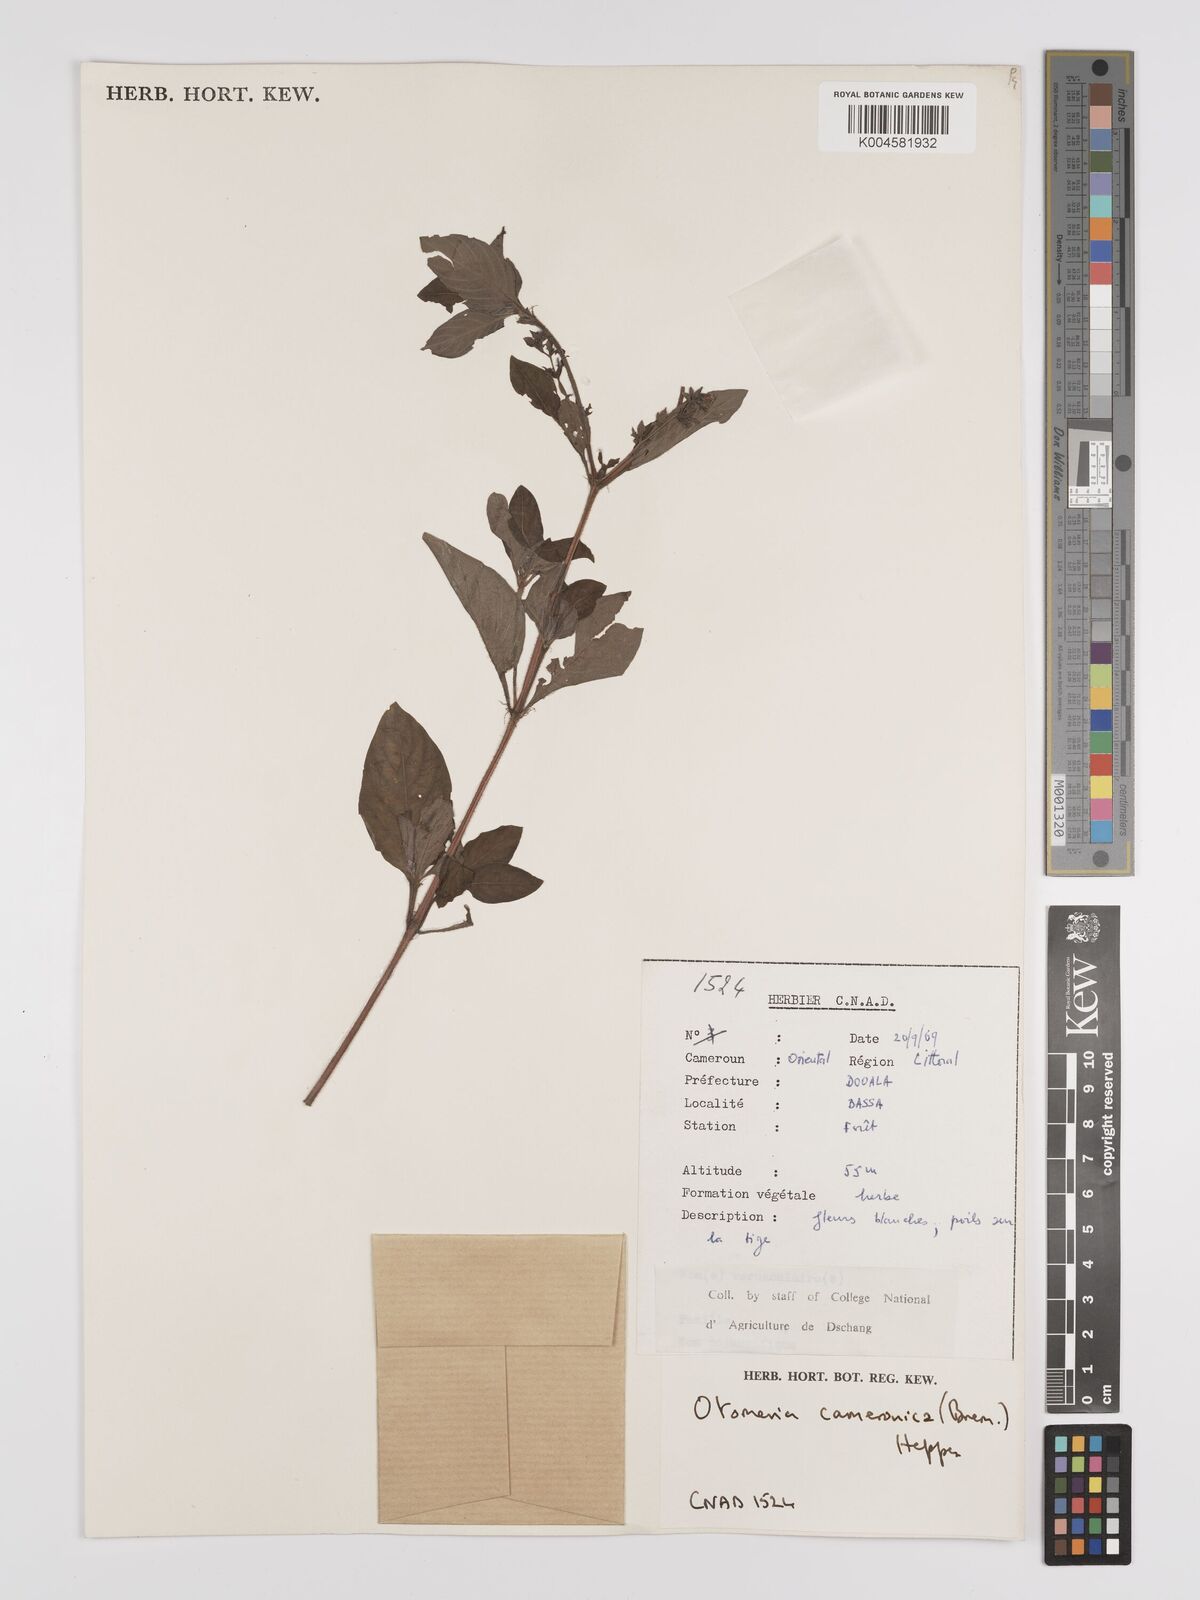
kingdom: Plantae
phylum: Tracheophyta
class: Magnoliopsida
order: Gentianales
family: Rubiaceae
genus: Otomeria
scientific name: Otomeria cameronica
